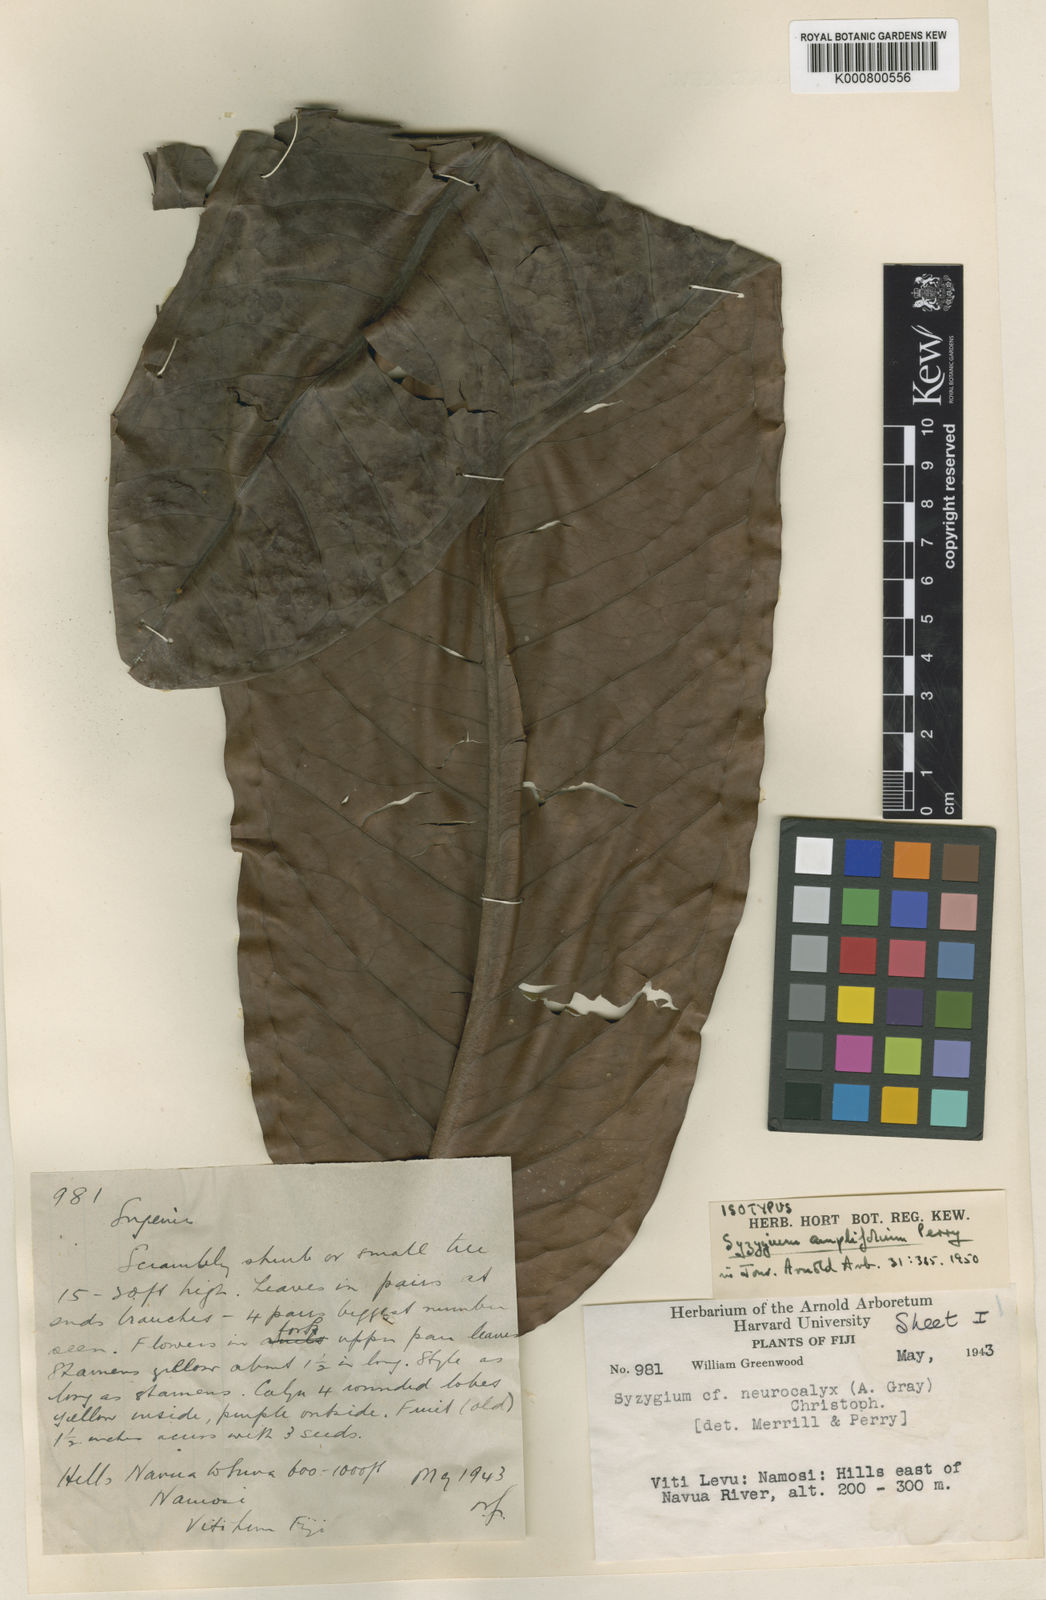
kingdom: Plantae
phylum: Tracheophyta
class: Magnoliopsida
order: Myrtales
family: Myrtaceae
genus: Syzygium
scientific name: Syzygium amplifolium
